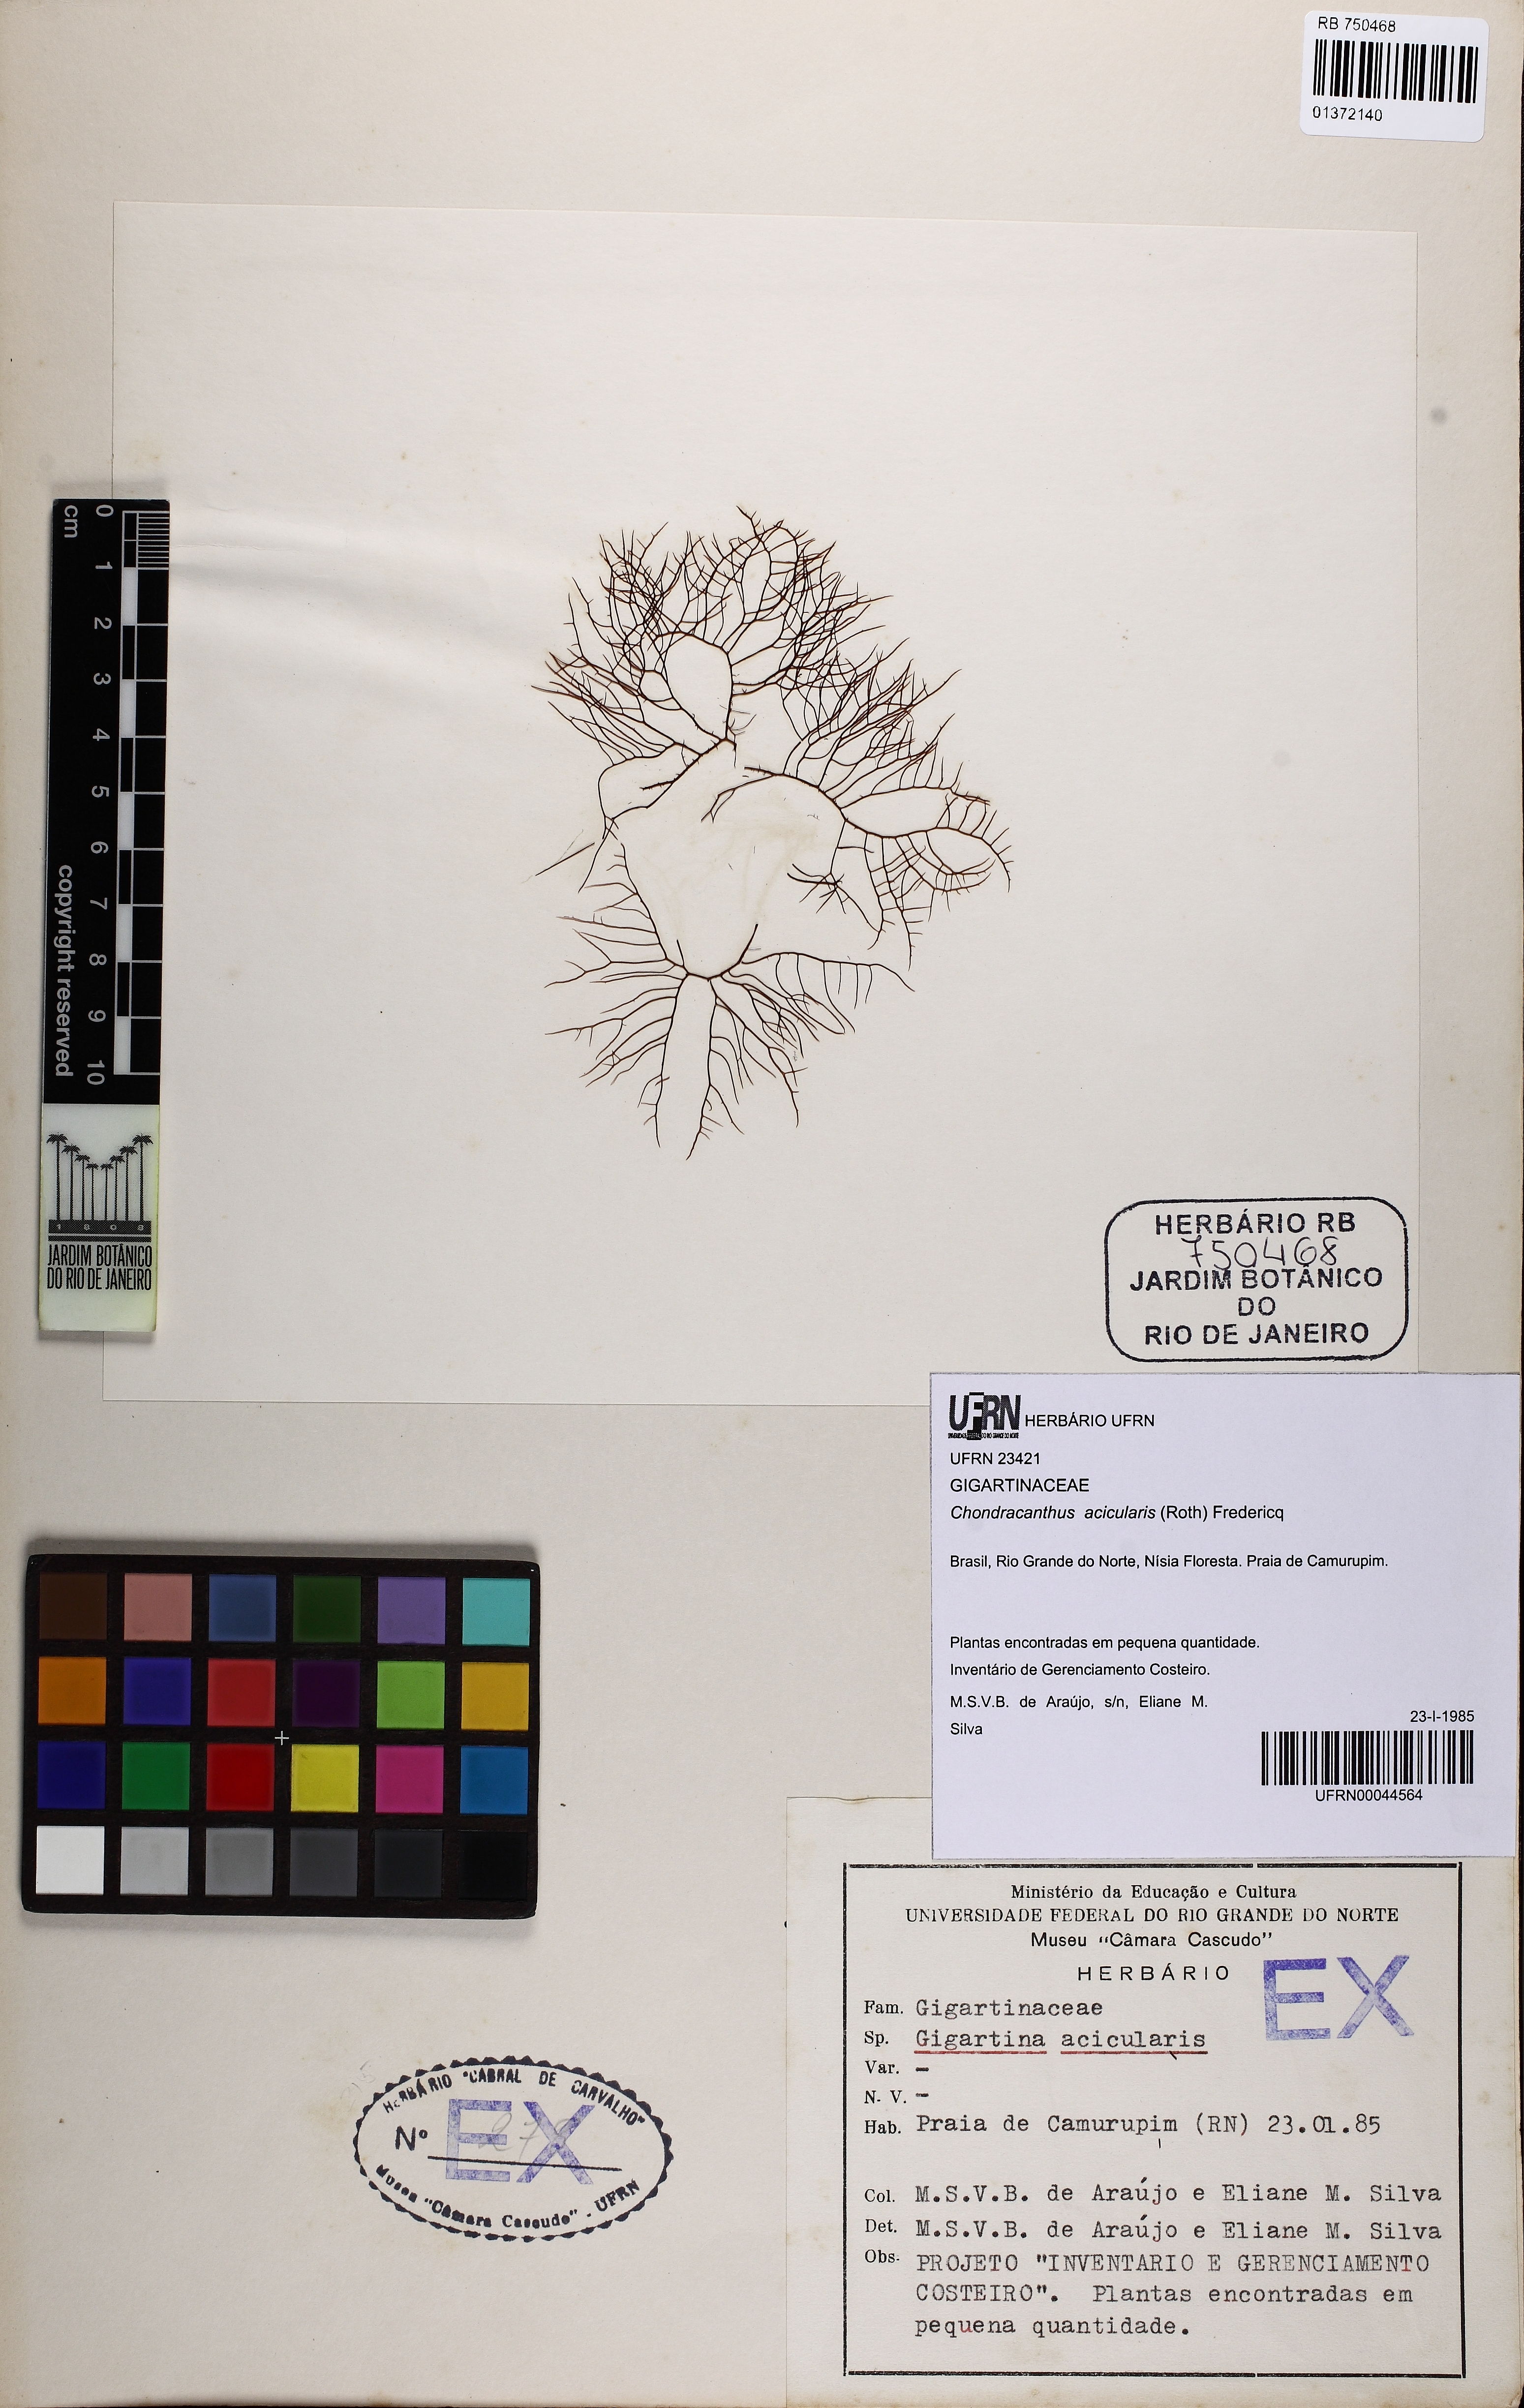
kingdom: Plantae
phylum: Rhodophyta
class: Florideophyceae
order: Gigartinales
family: Gigartinaceae
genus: Chondracanthus
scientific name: Chondracanthus acicularis
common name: Creephorn
